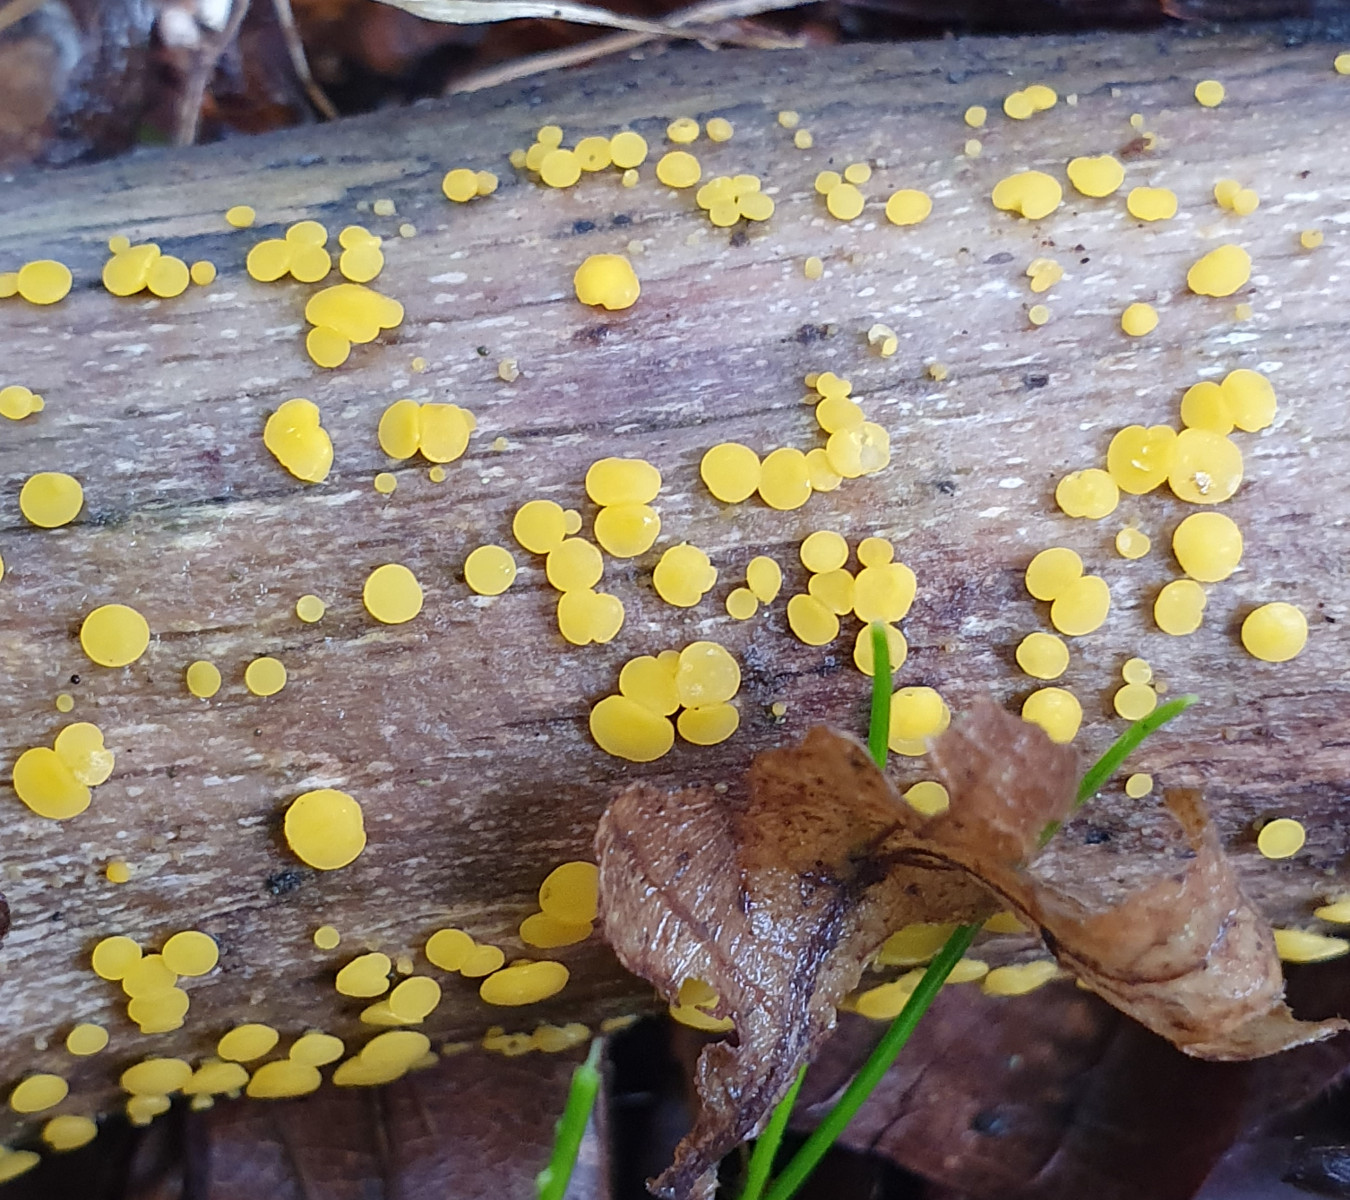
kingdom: Fungi
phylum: Ascomycota
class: Leotiomycetes
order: Helotiales
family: Pezizellaceae
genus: Calycina
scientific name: Calycina citrina
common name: almindelig gulskive
